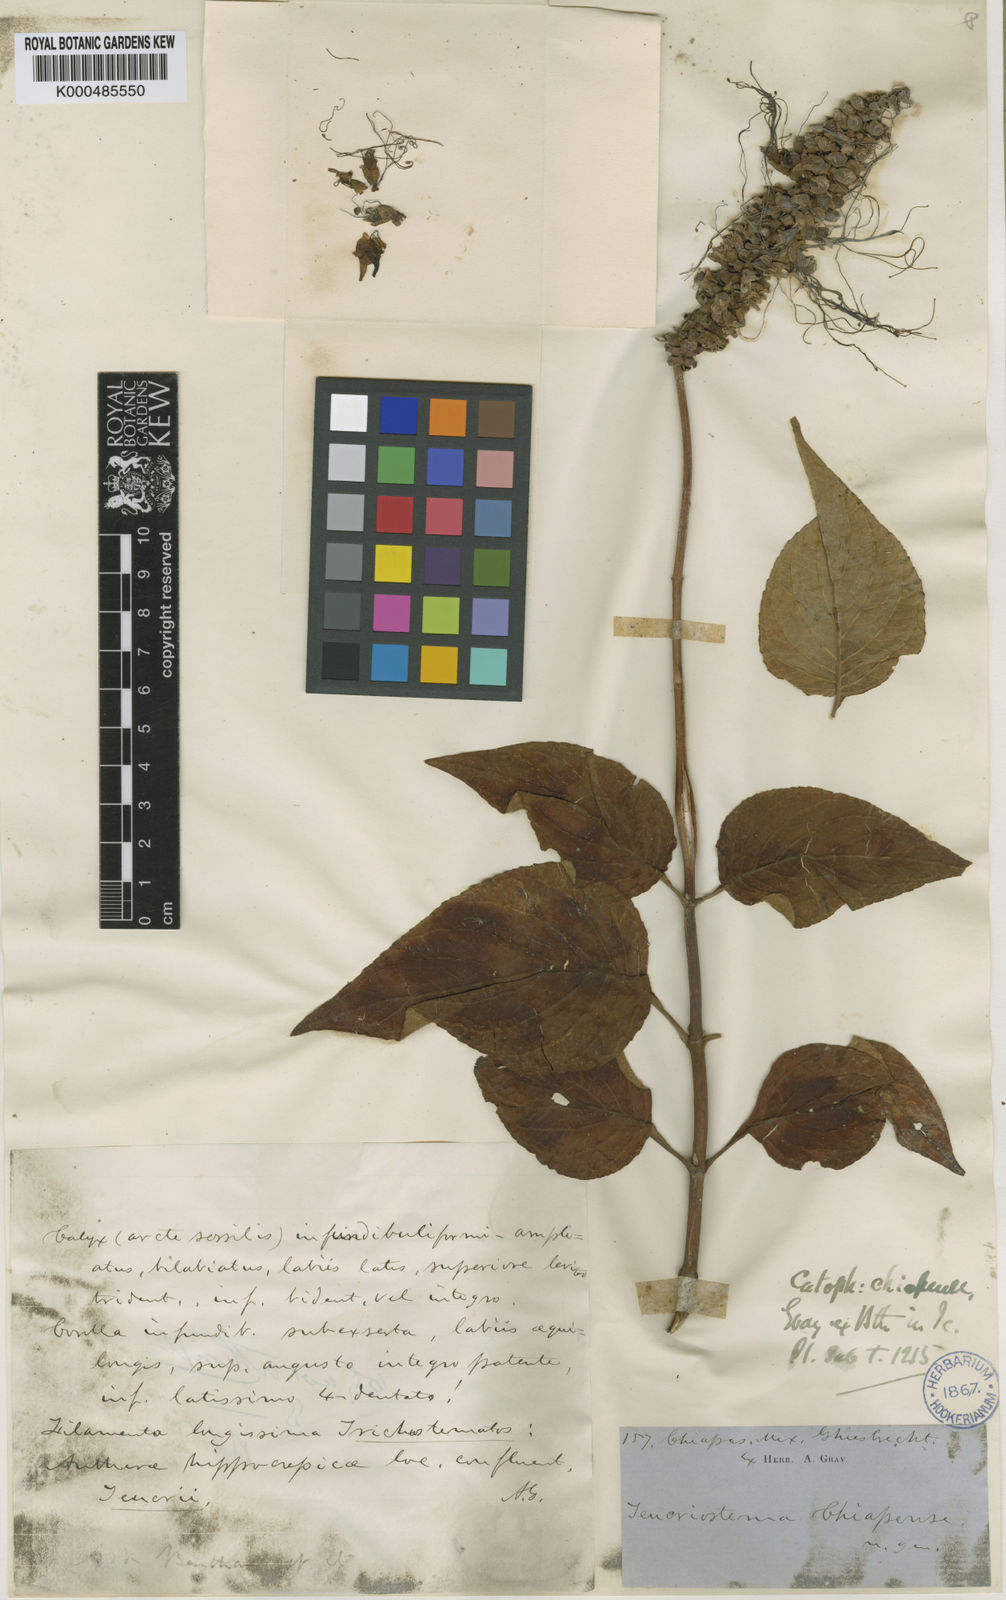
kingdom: Plantae
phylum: Tracheophyta
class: Magnoliopsida
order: Lamiales
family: Lamiaceae
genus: Catoferia
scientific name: Catoferia chiapensis
